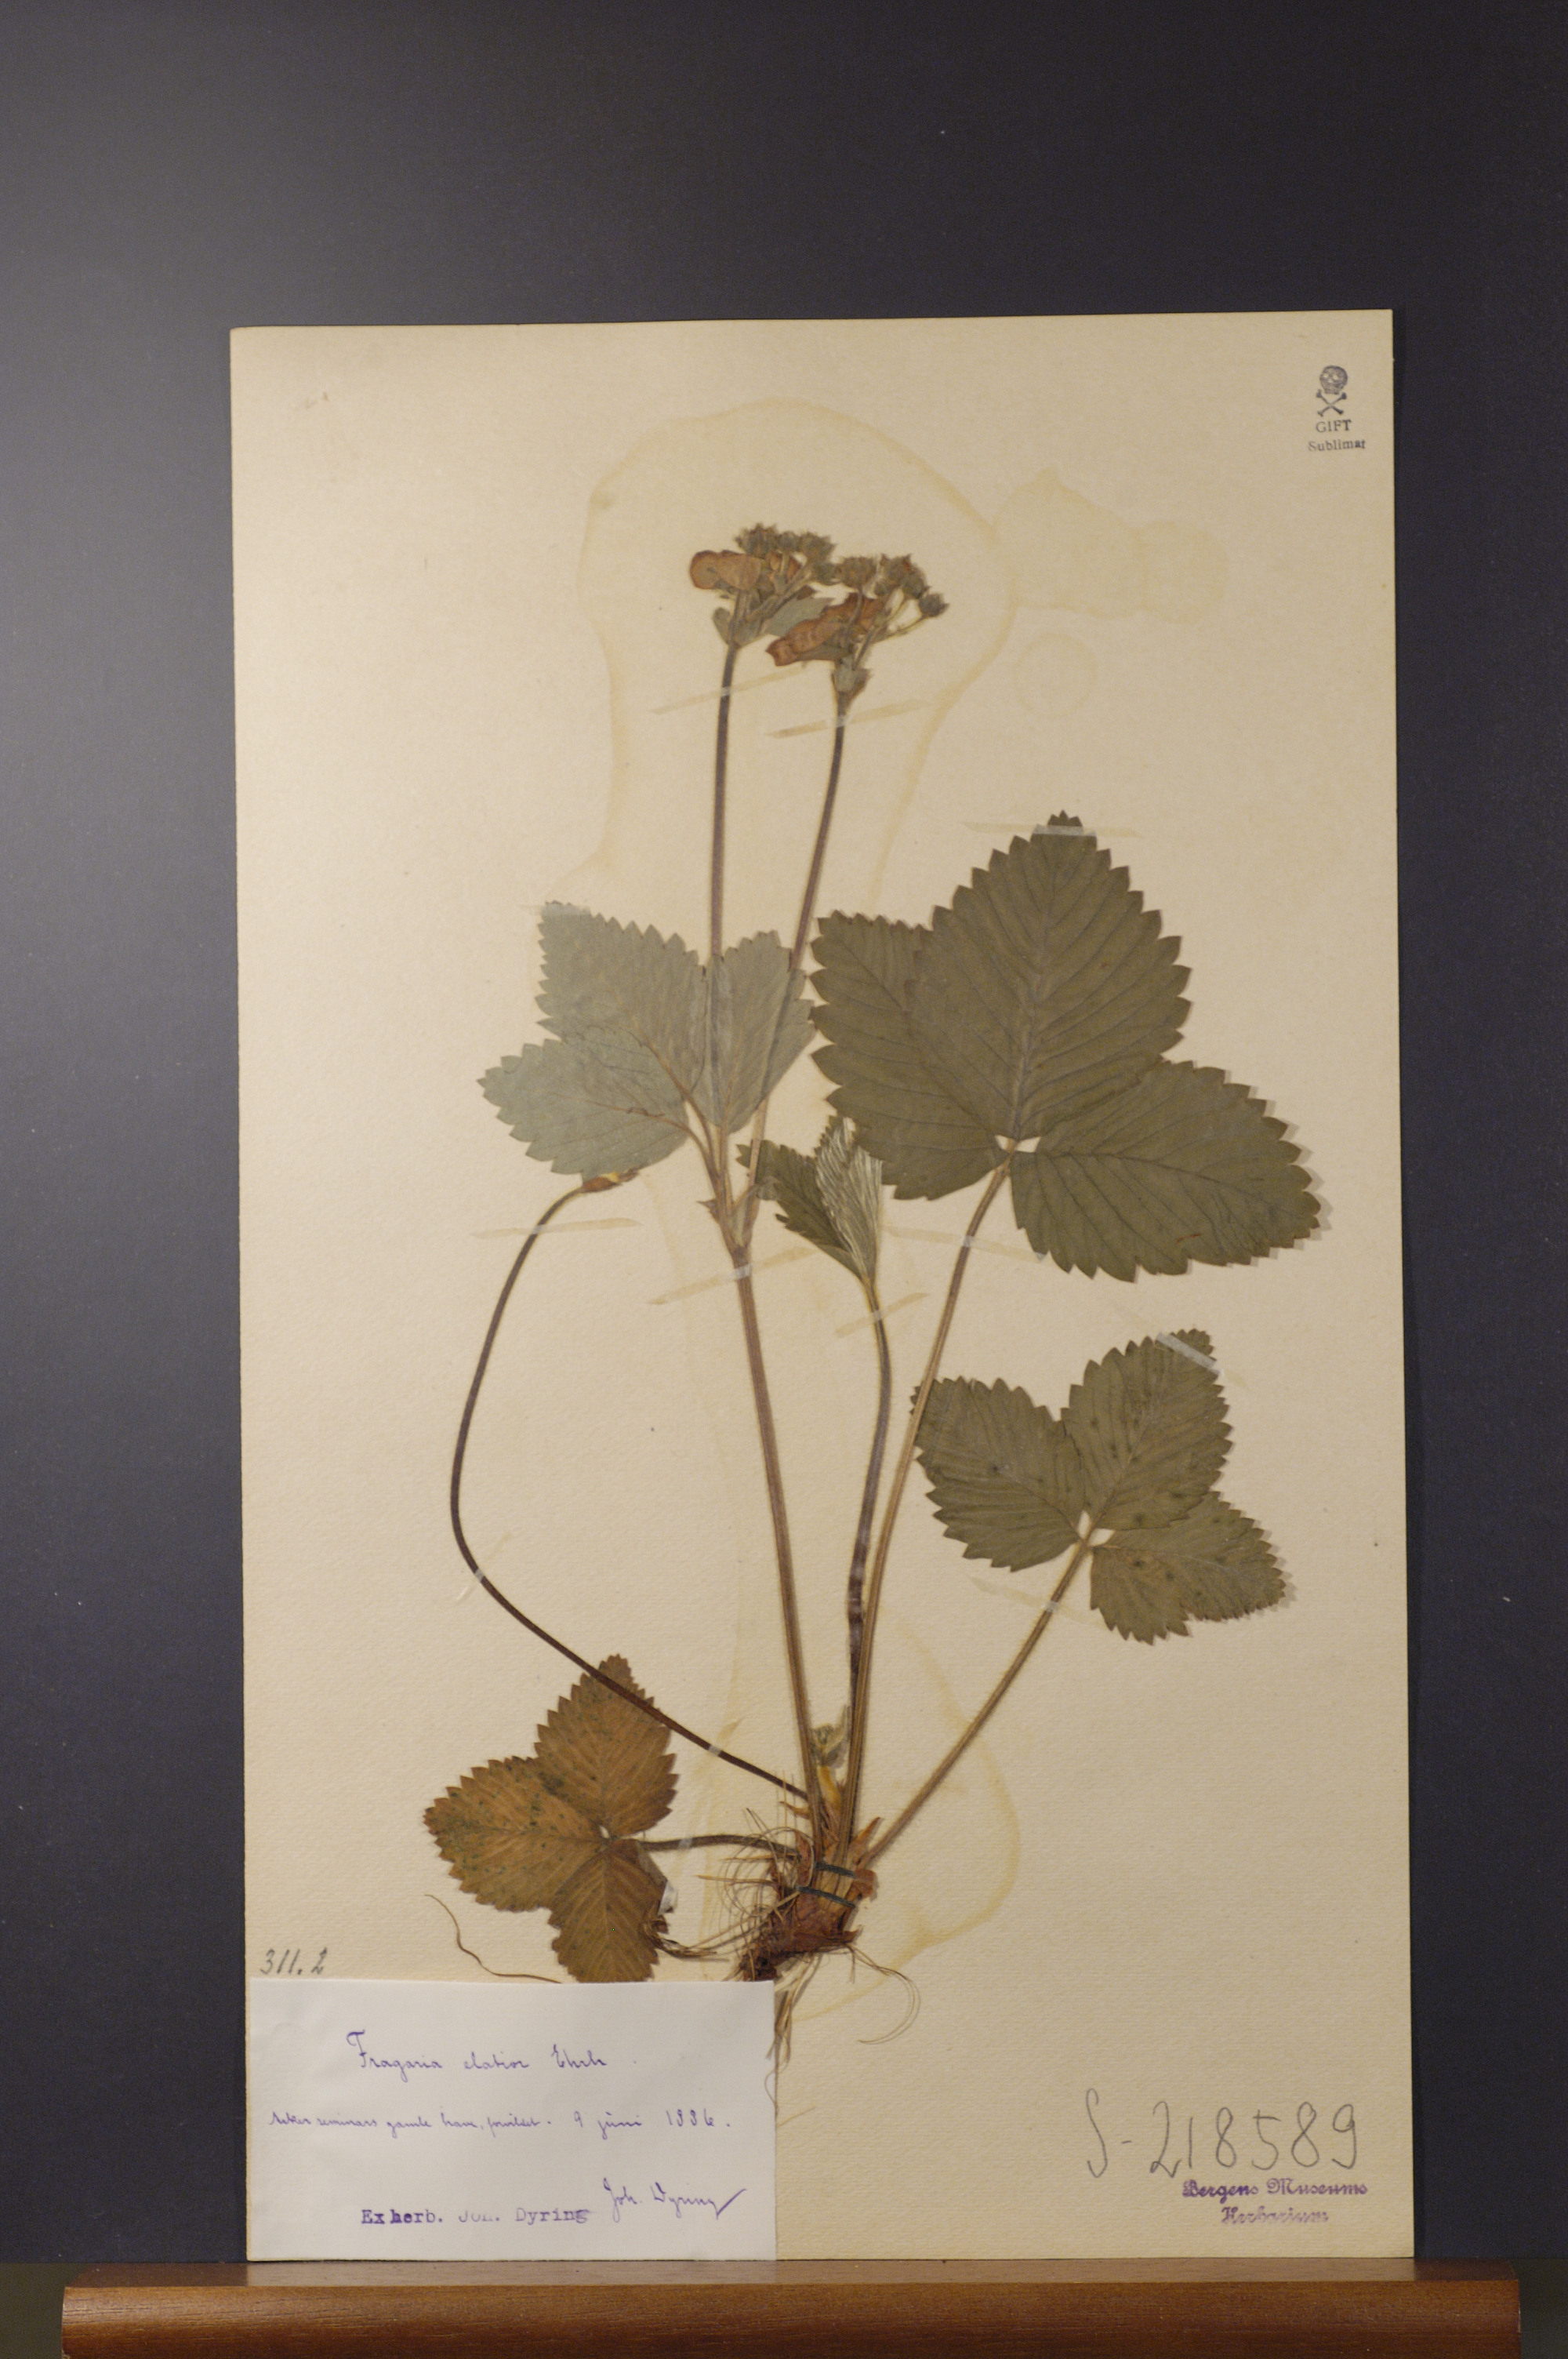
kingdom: Plantae
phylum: Tracheophyta
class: Magnoliopsida
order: Rosales
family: Rosaceae
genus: Fragaria
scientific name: Fragaria moschata
